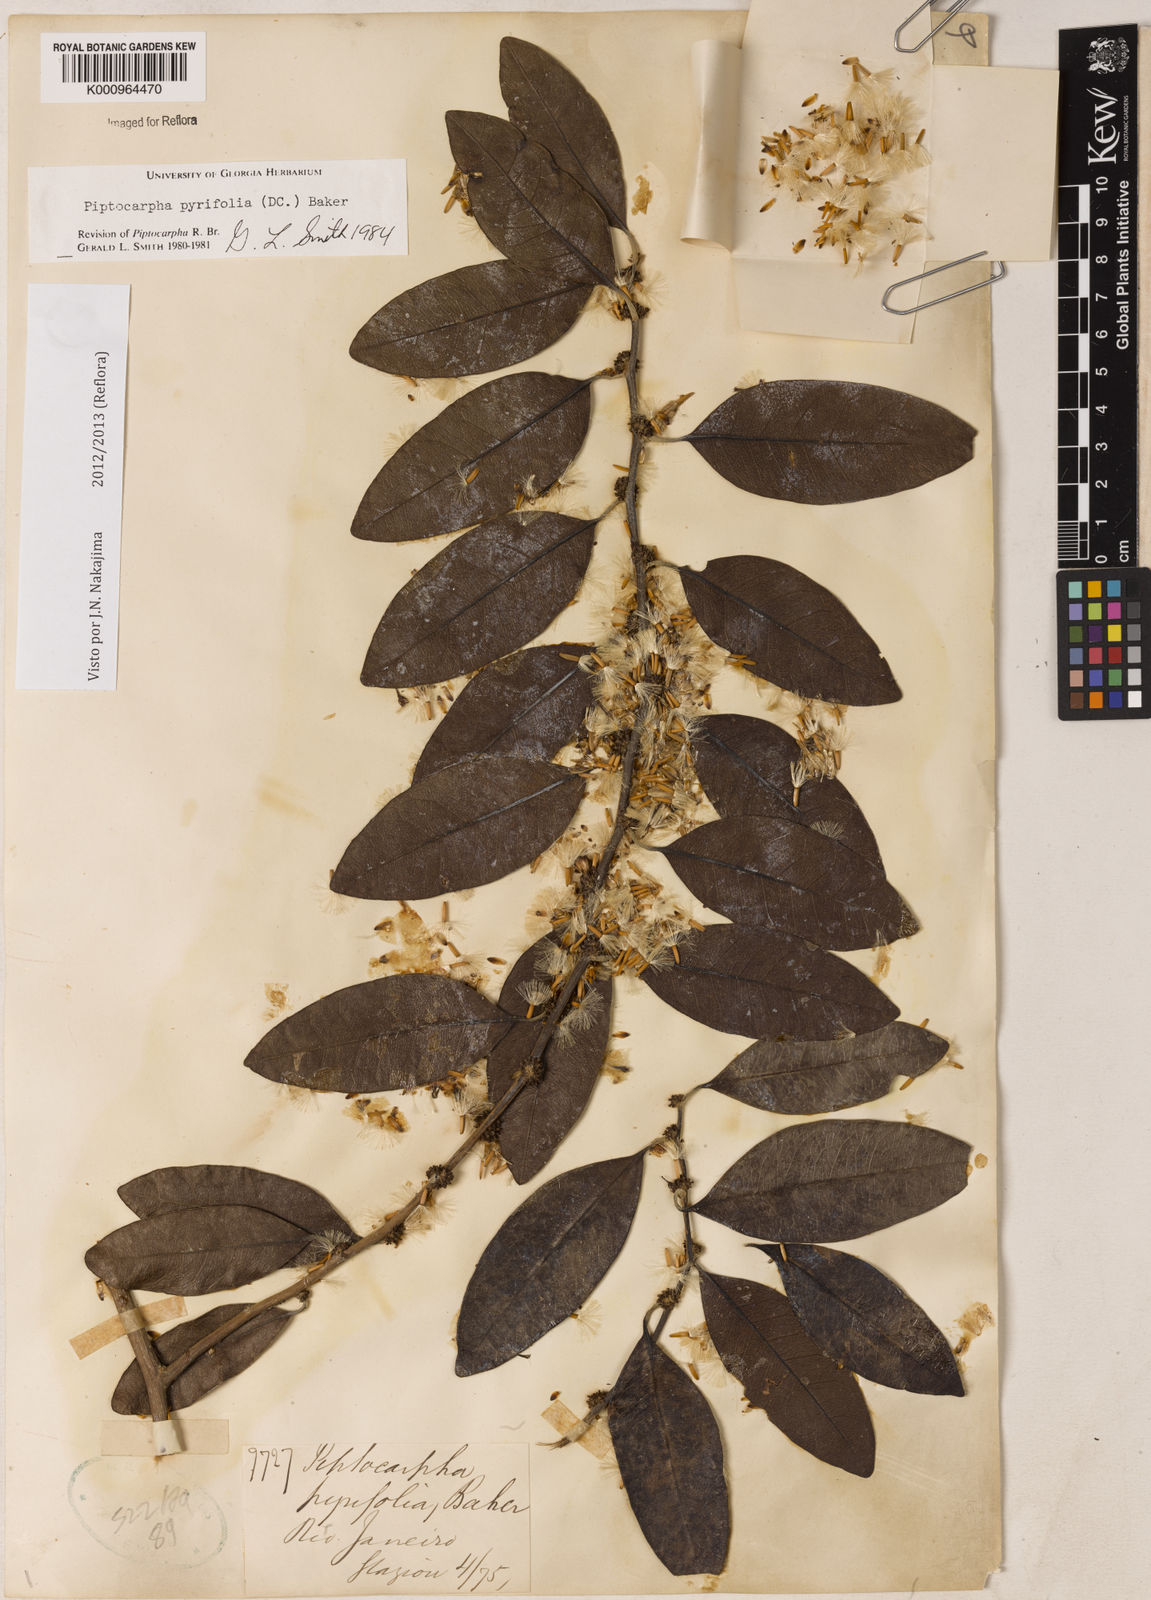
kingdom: Plantae
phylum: Tracheophyta
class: Magnoliopsida
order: Asterales
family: Asteraceae
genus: Piptocarpha
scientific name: Piptocarpha pyrifolia
